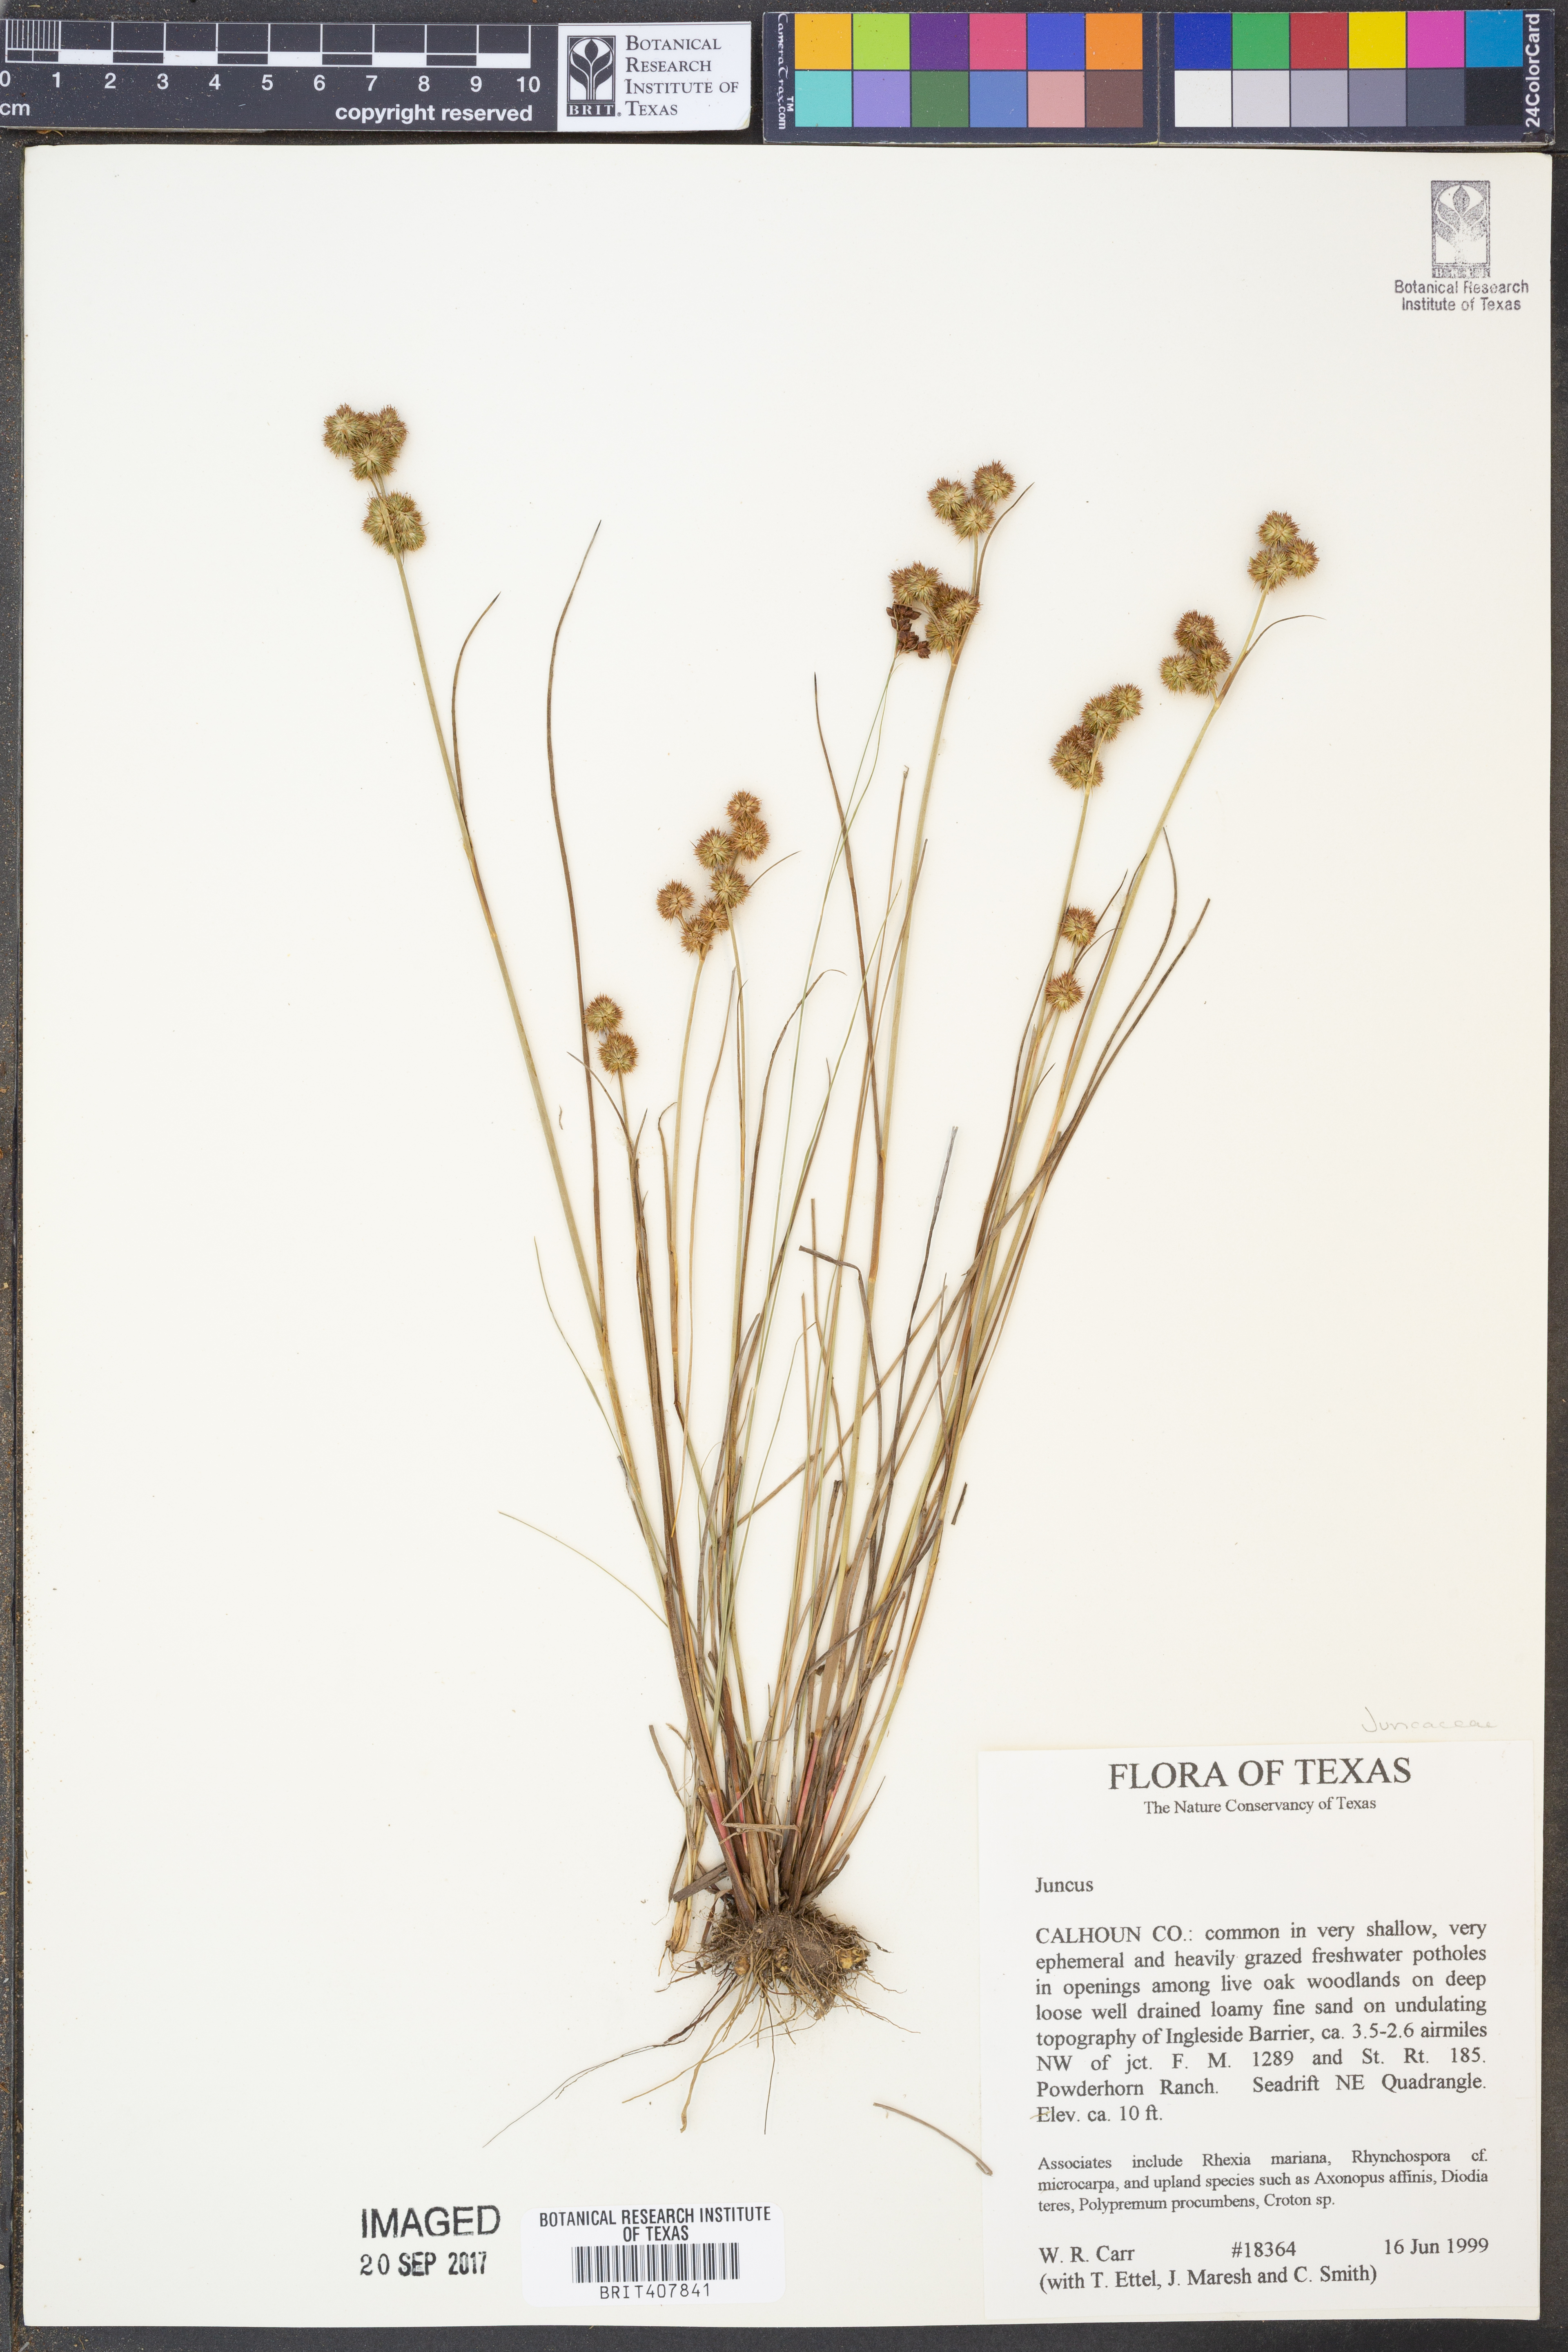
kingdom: Plantae
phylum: Tracheophyta
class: Liliopsida
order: Poales
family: Juncaceae
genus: Juncus
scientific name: Juncus
